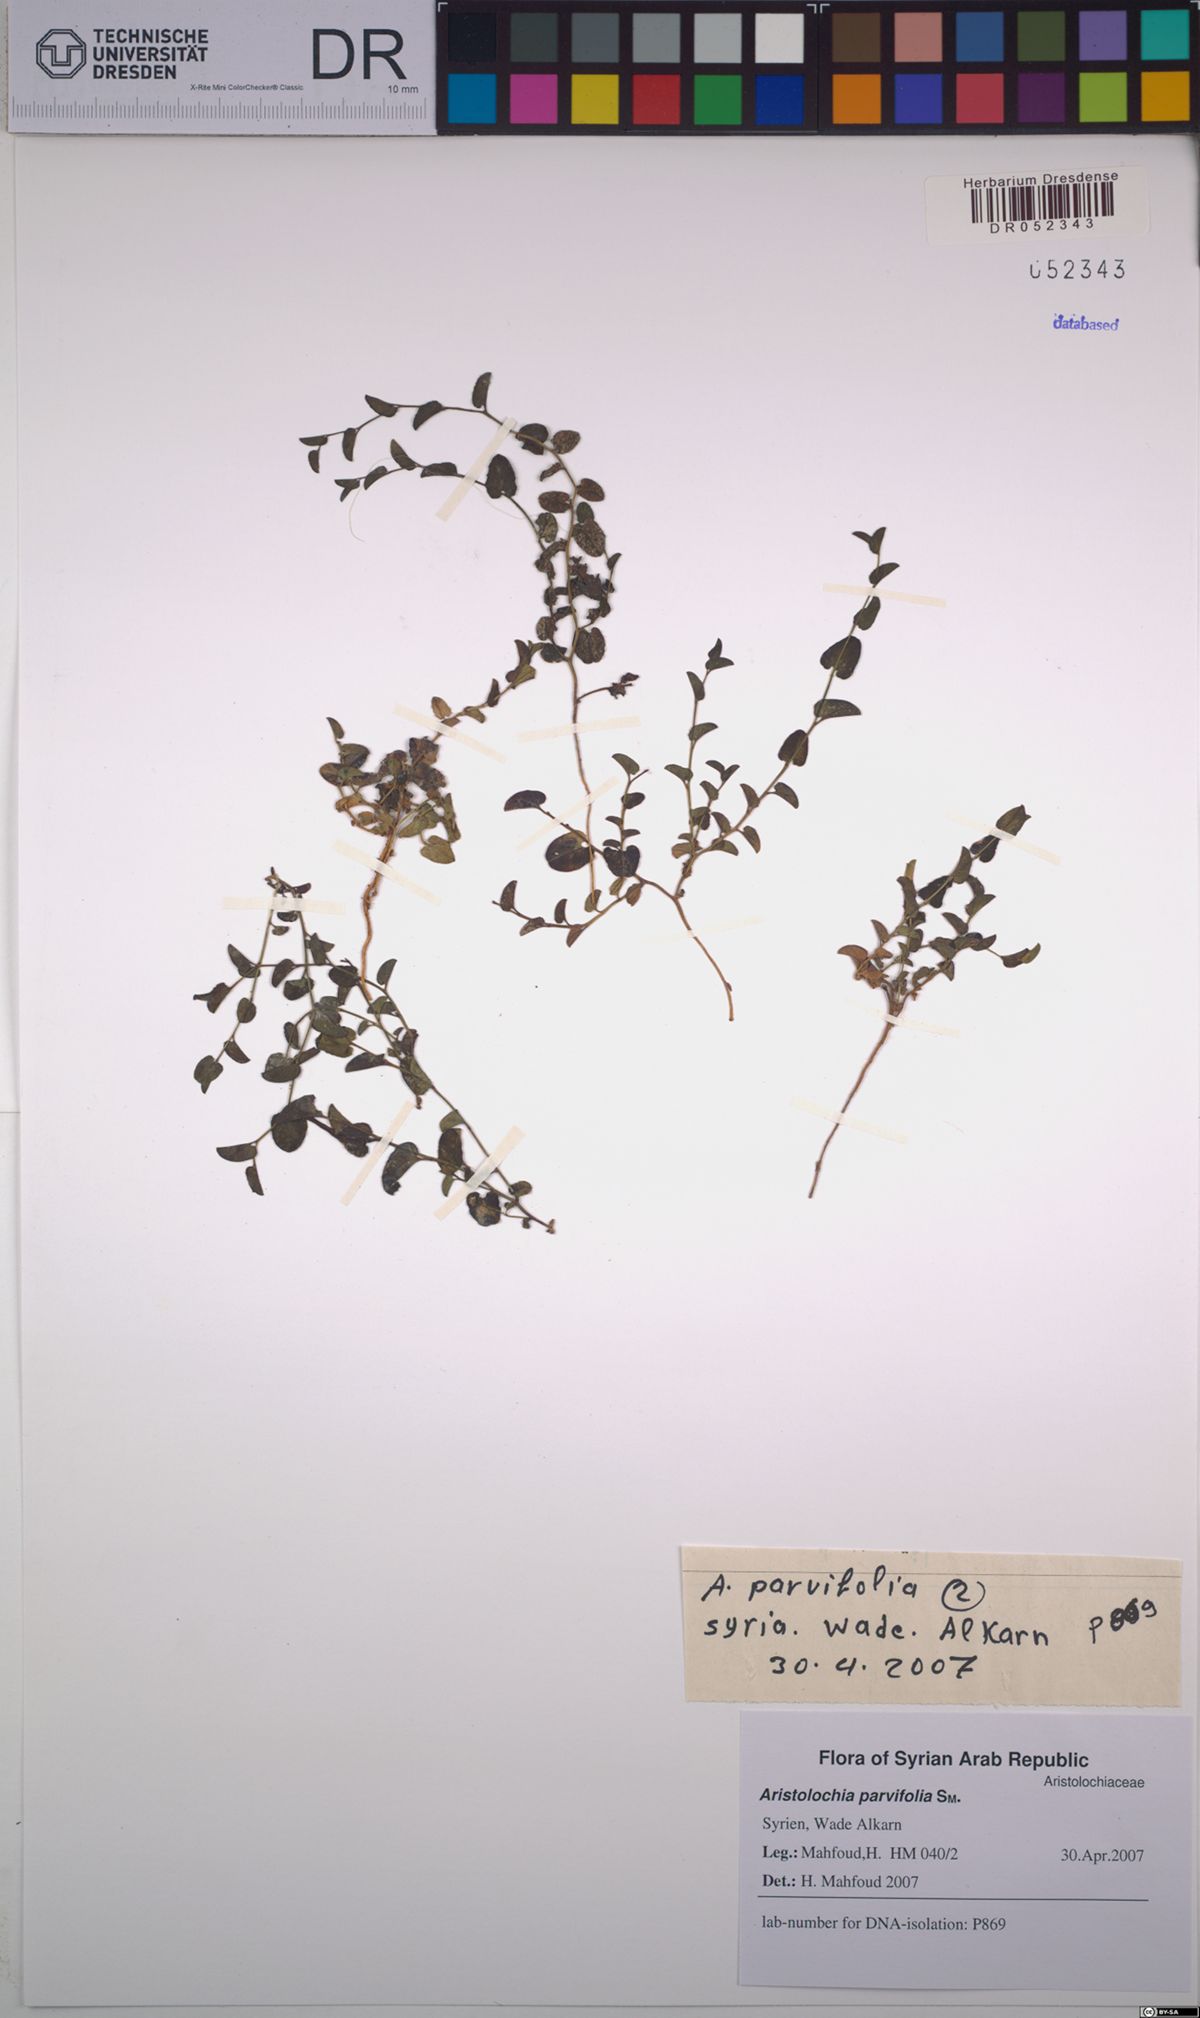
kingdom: Plantae
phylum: Tracheophyta
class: Magnoliopsida
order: Piperales
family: Aristolochiaceae
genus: Aristolochia
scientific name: Aristolochia parvifolia
